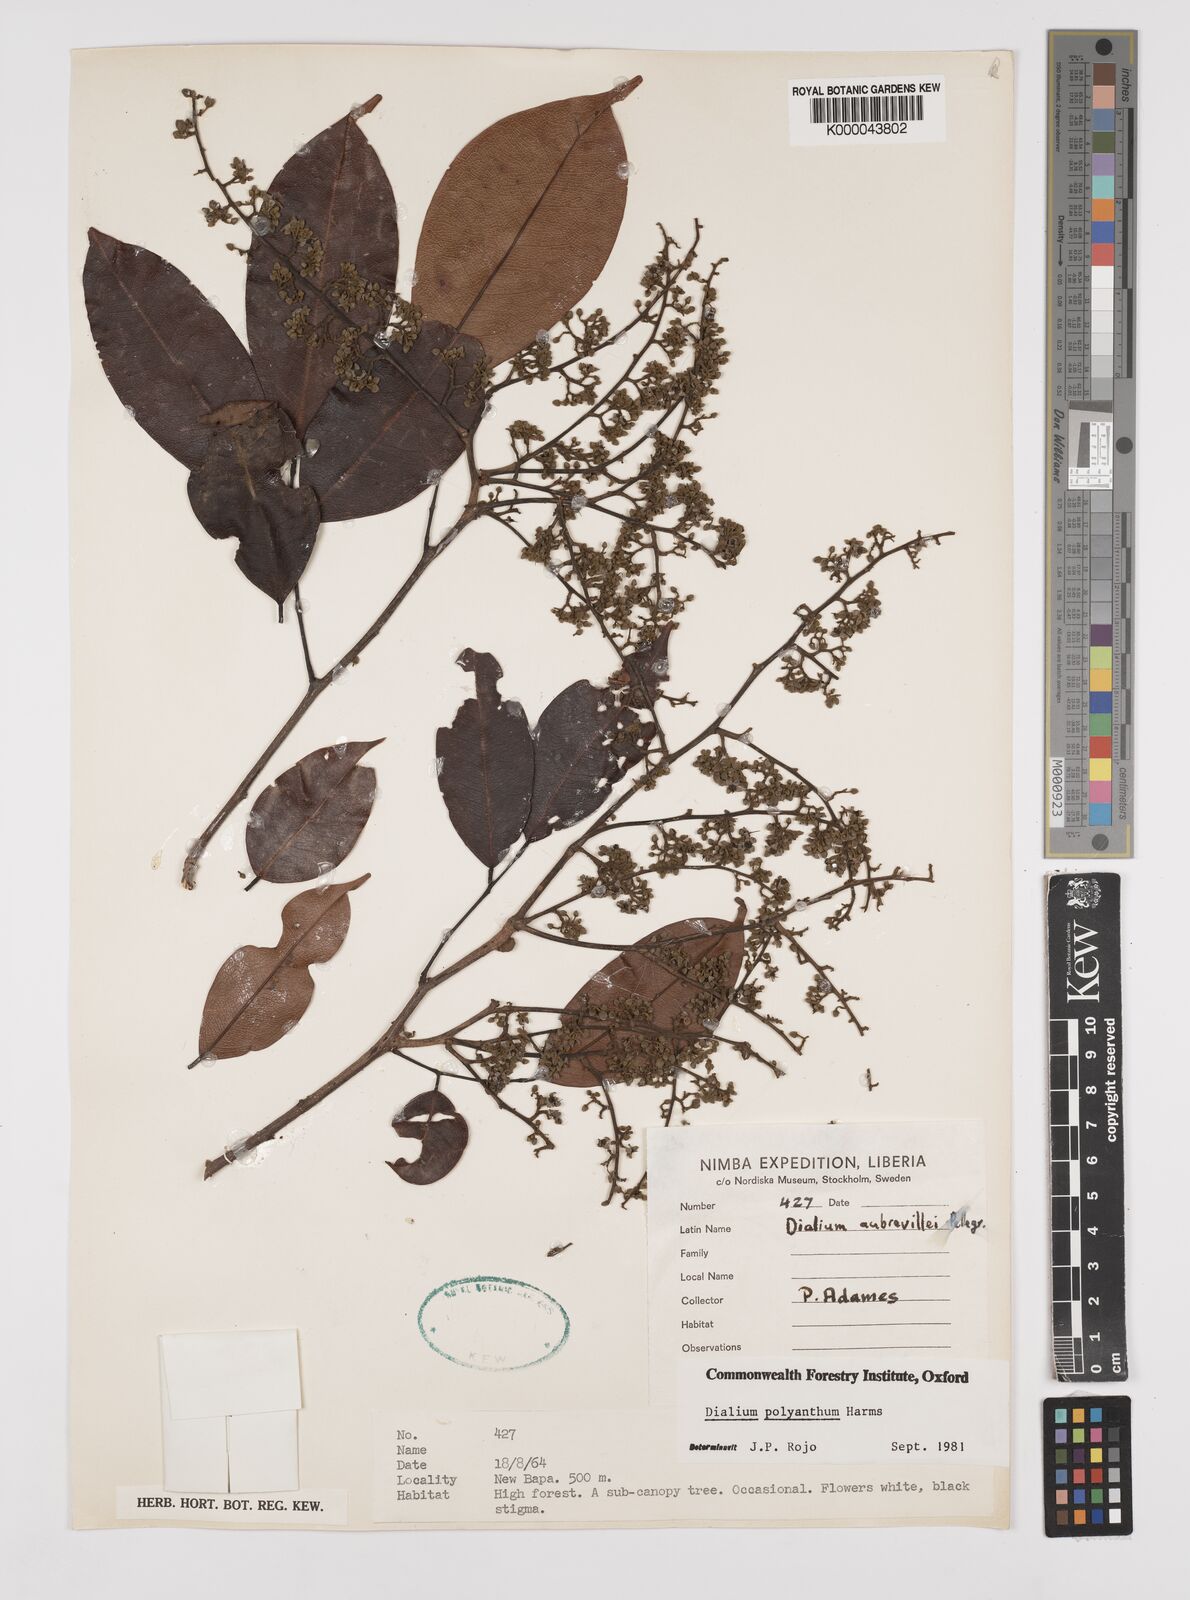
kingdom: Plantae
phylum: Tracheophyta
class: Magnoliopsida
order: Fabales
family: Fabaceae
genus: Dialium
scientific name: Dialium polyanthum
